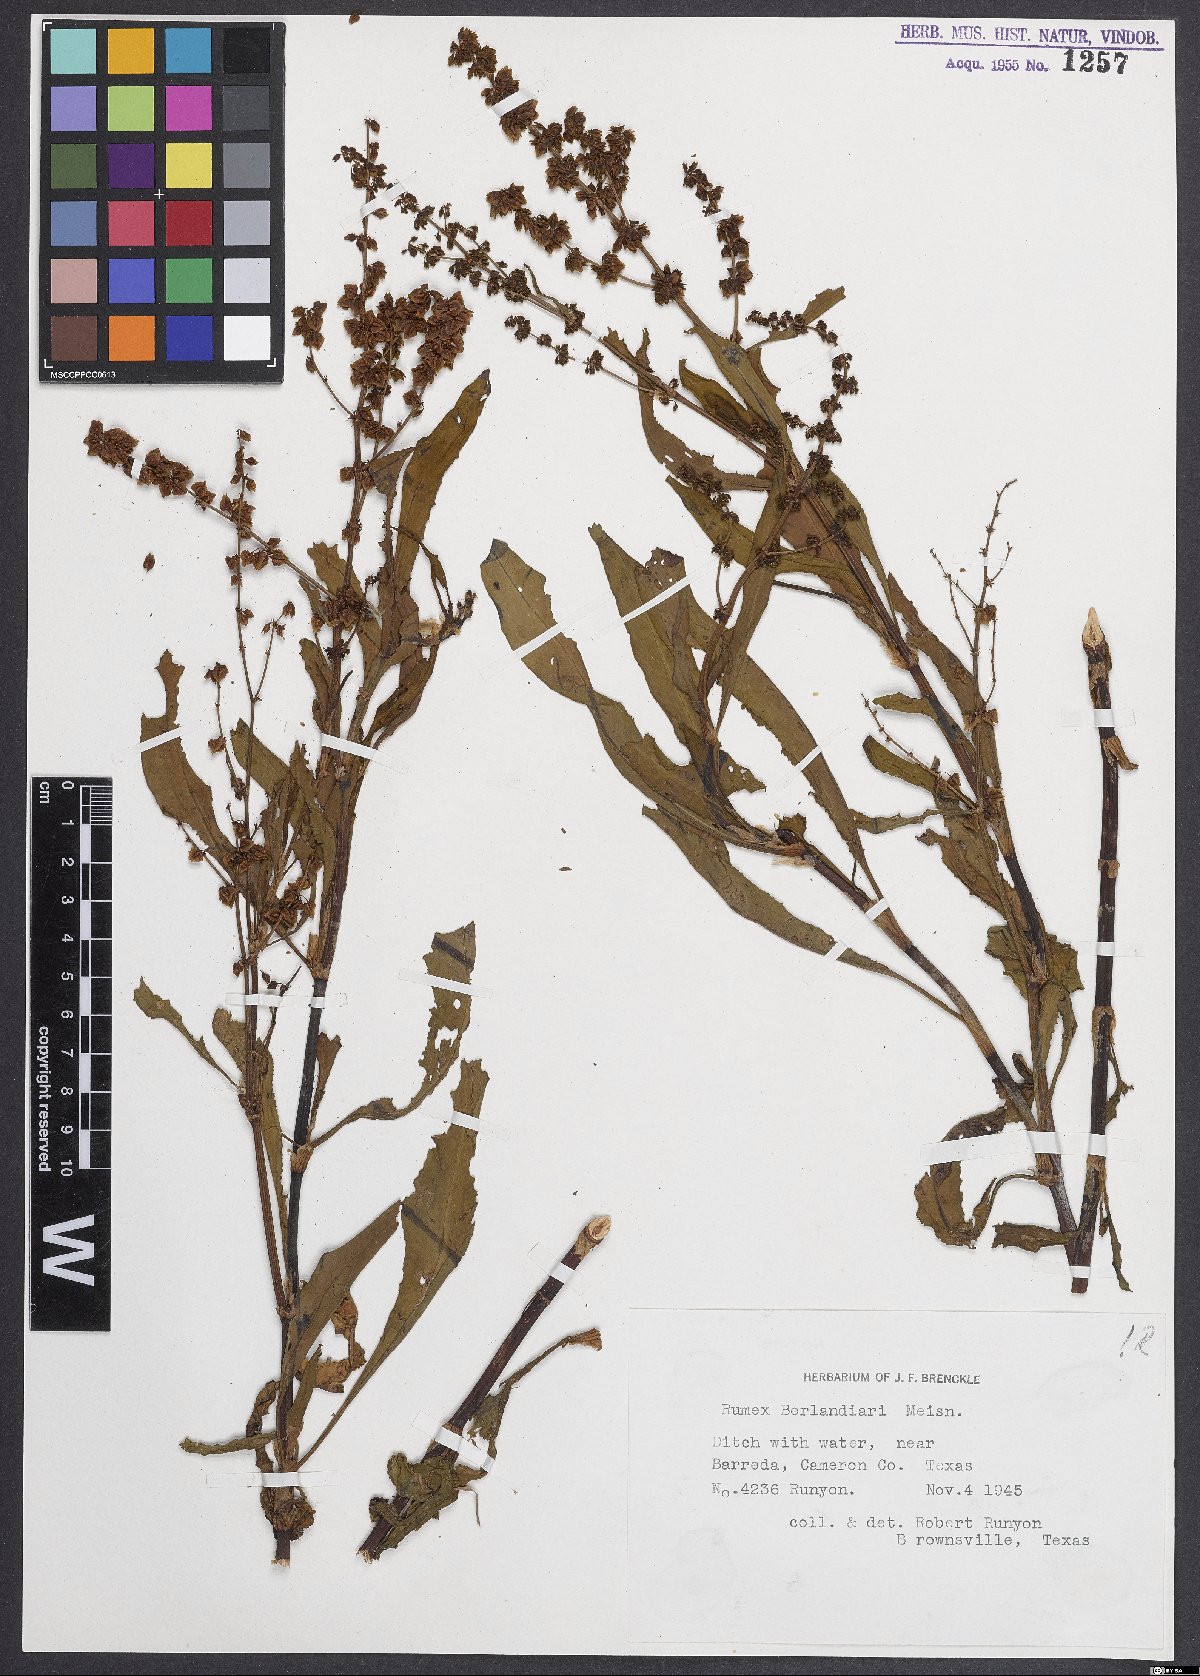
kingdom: Plantae
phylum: Tracheophyta
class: Magnoliopsida
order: Caryophyllales
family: Polygonaceae
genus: Rumex
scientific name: Rumex chrysocarpus
